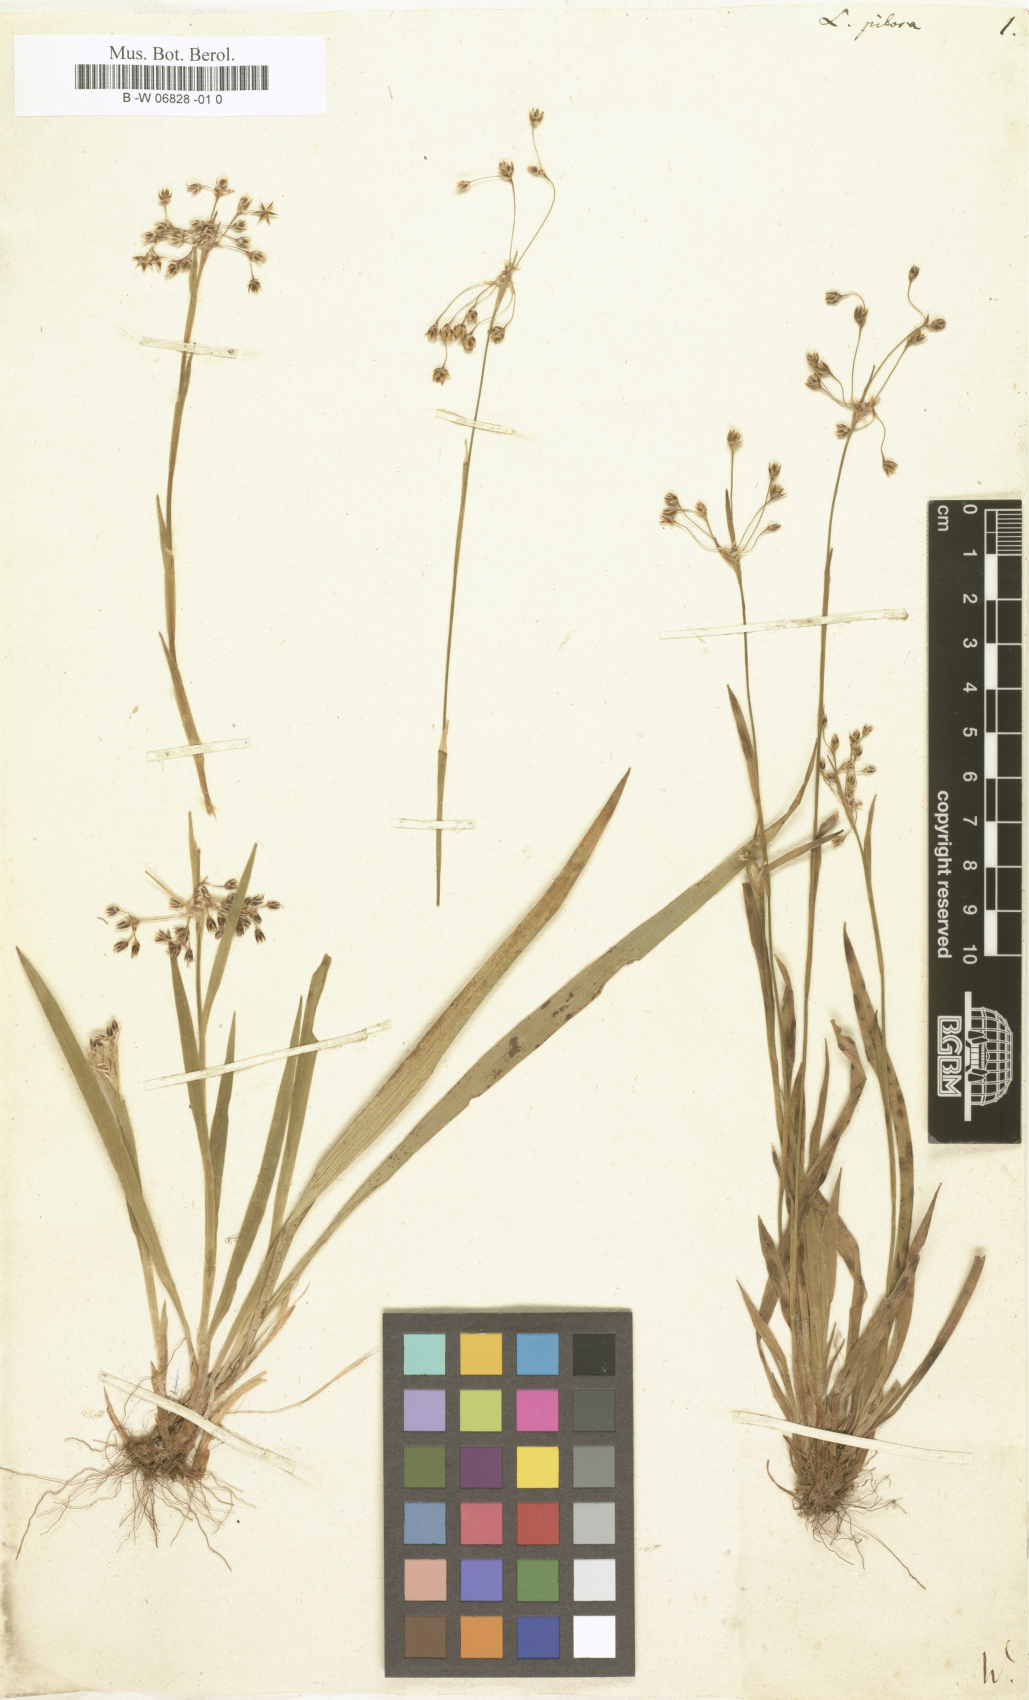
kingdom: Plantae
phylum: Tracheophyta
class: Liliopsida
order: Poales
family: Juncaceae
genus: Luzula
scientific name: Luzula pilosa
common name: Hairy wood-rush
